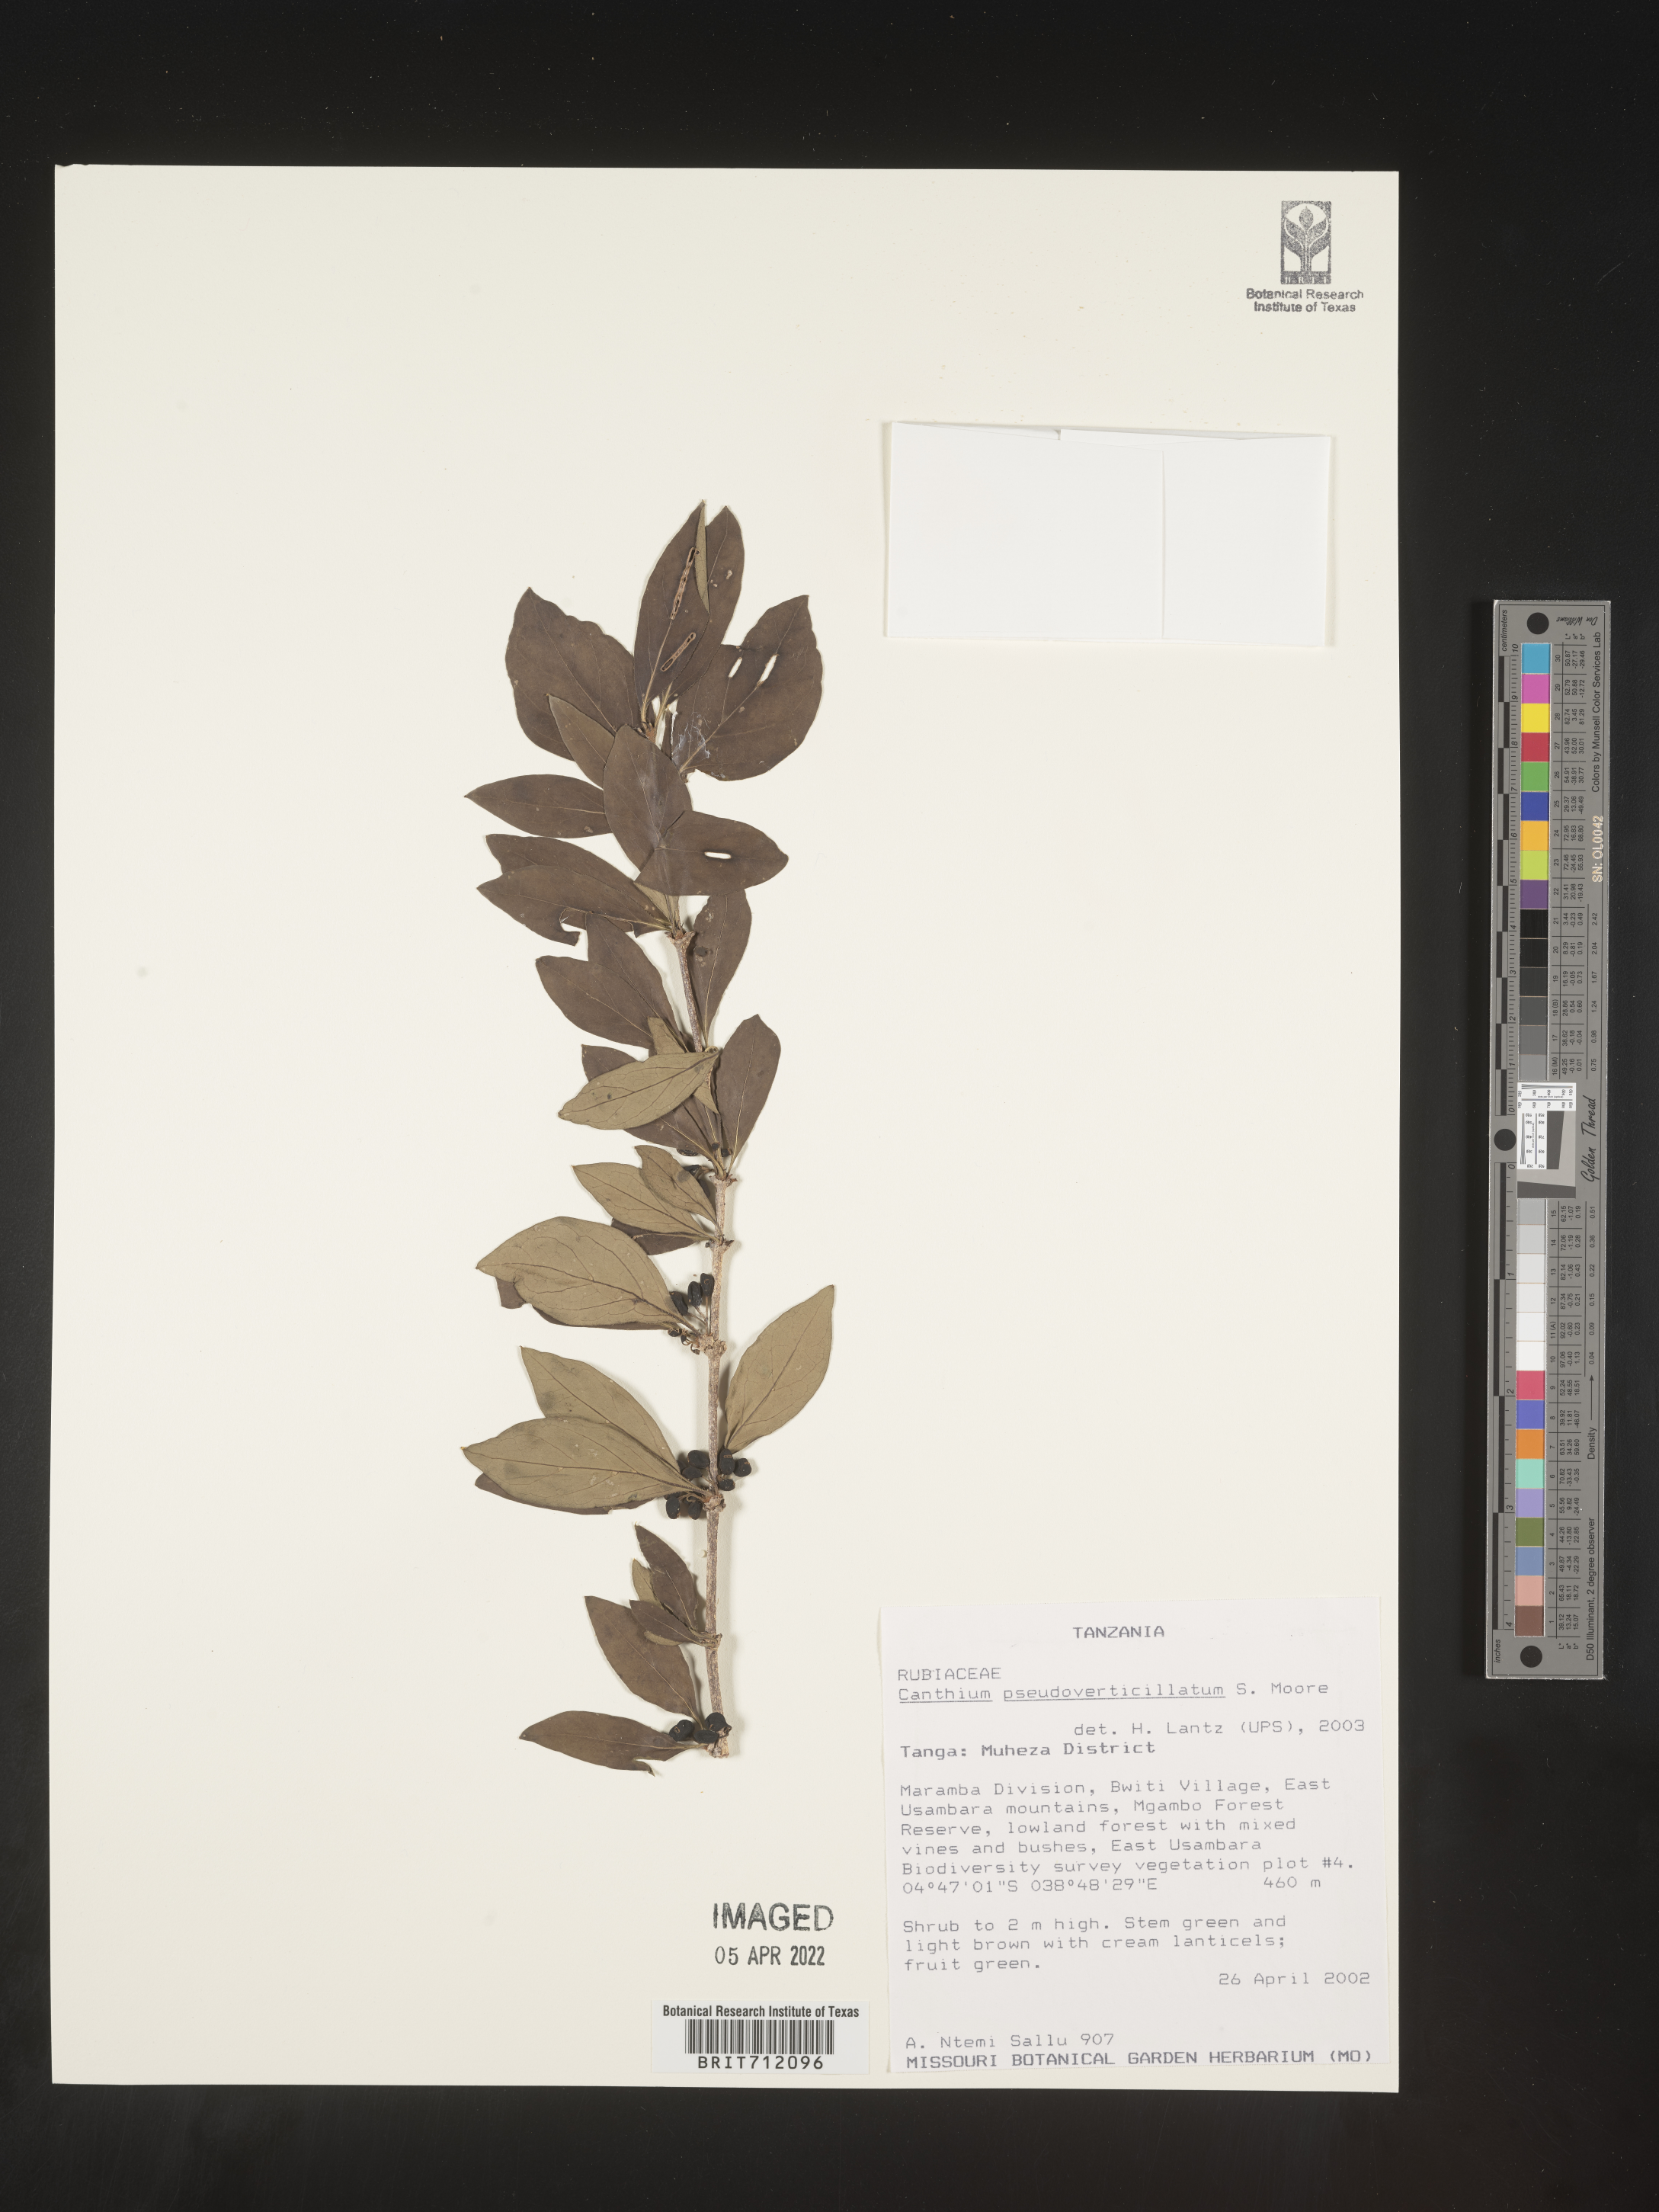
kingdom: Plantae
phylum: Tracheophyta
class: Magnoliopsida
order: Gentianales
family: Rubiaceae
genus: Canthium
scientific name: Canthium
